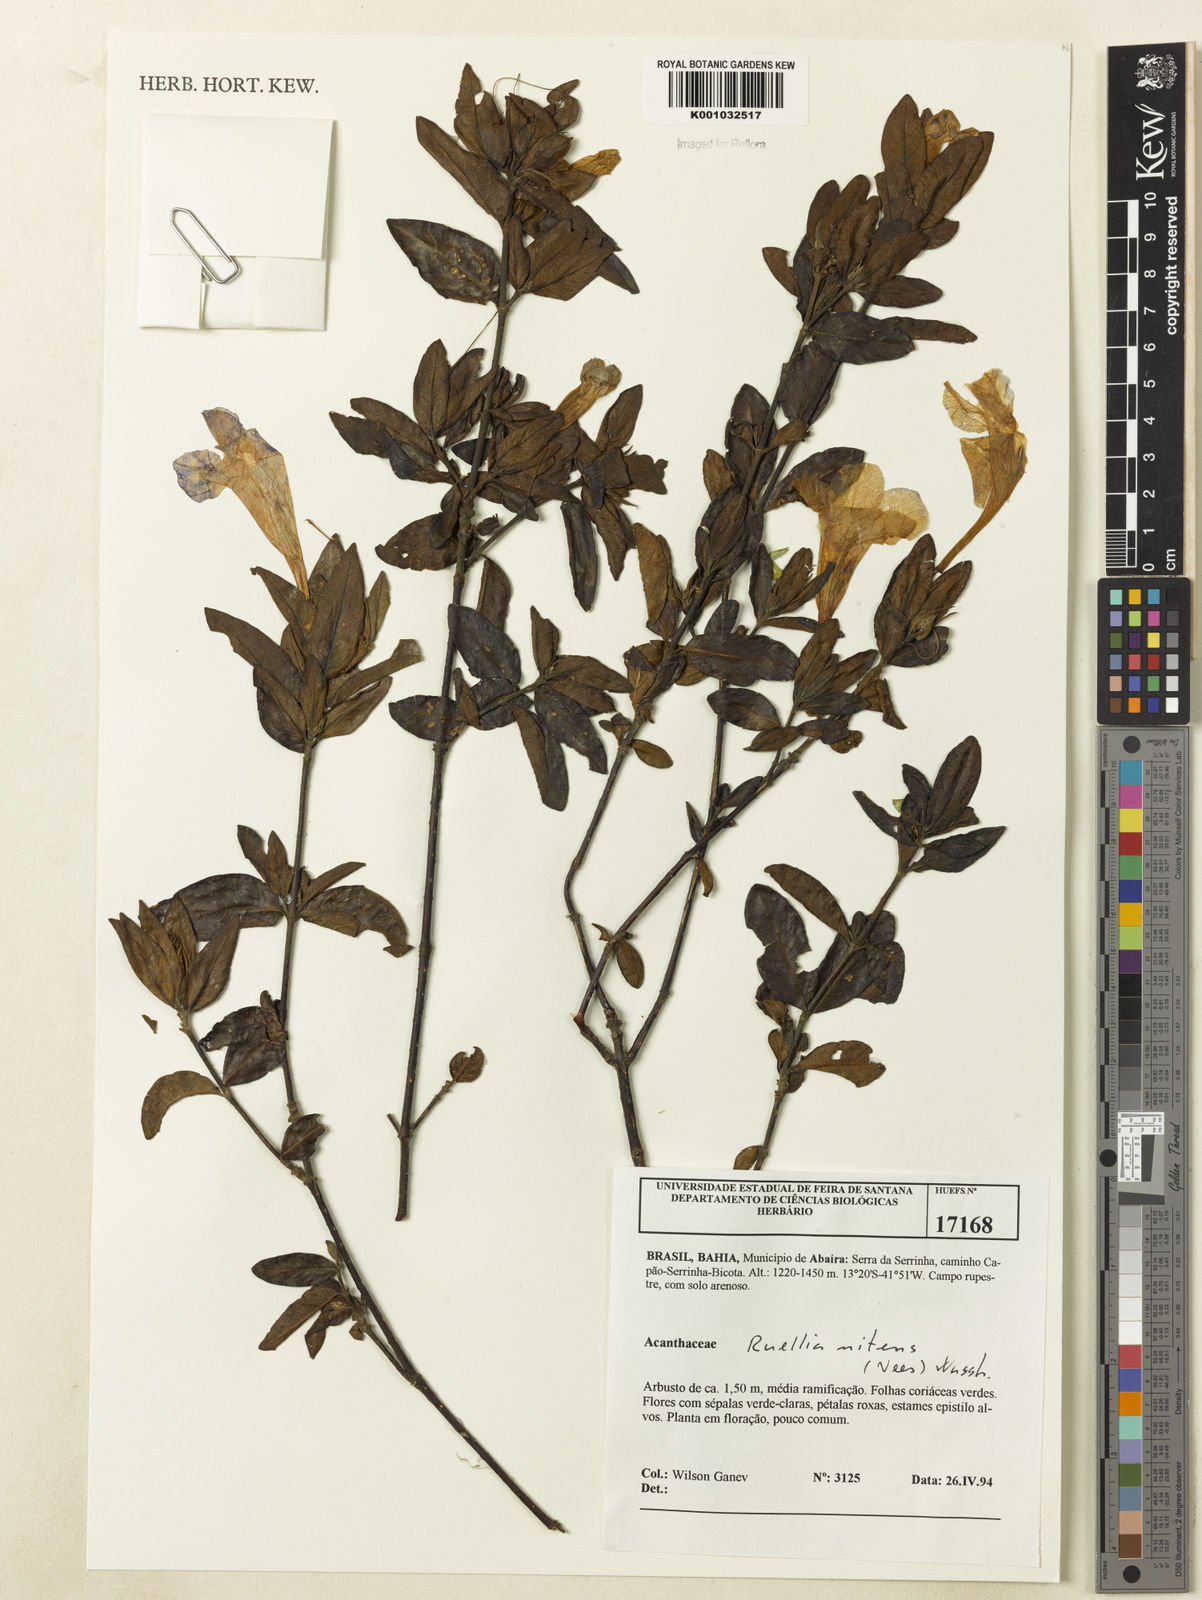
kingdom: Plantae
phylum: Tracheophyta
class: Magnoliopsida
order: Lamiales
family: Acanthaceae
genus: Ruellia
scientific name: Ruellia nitens
